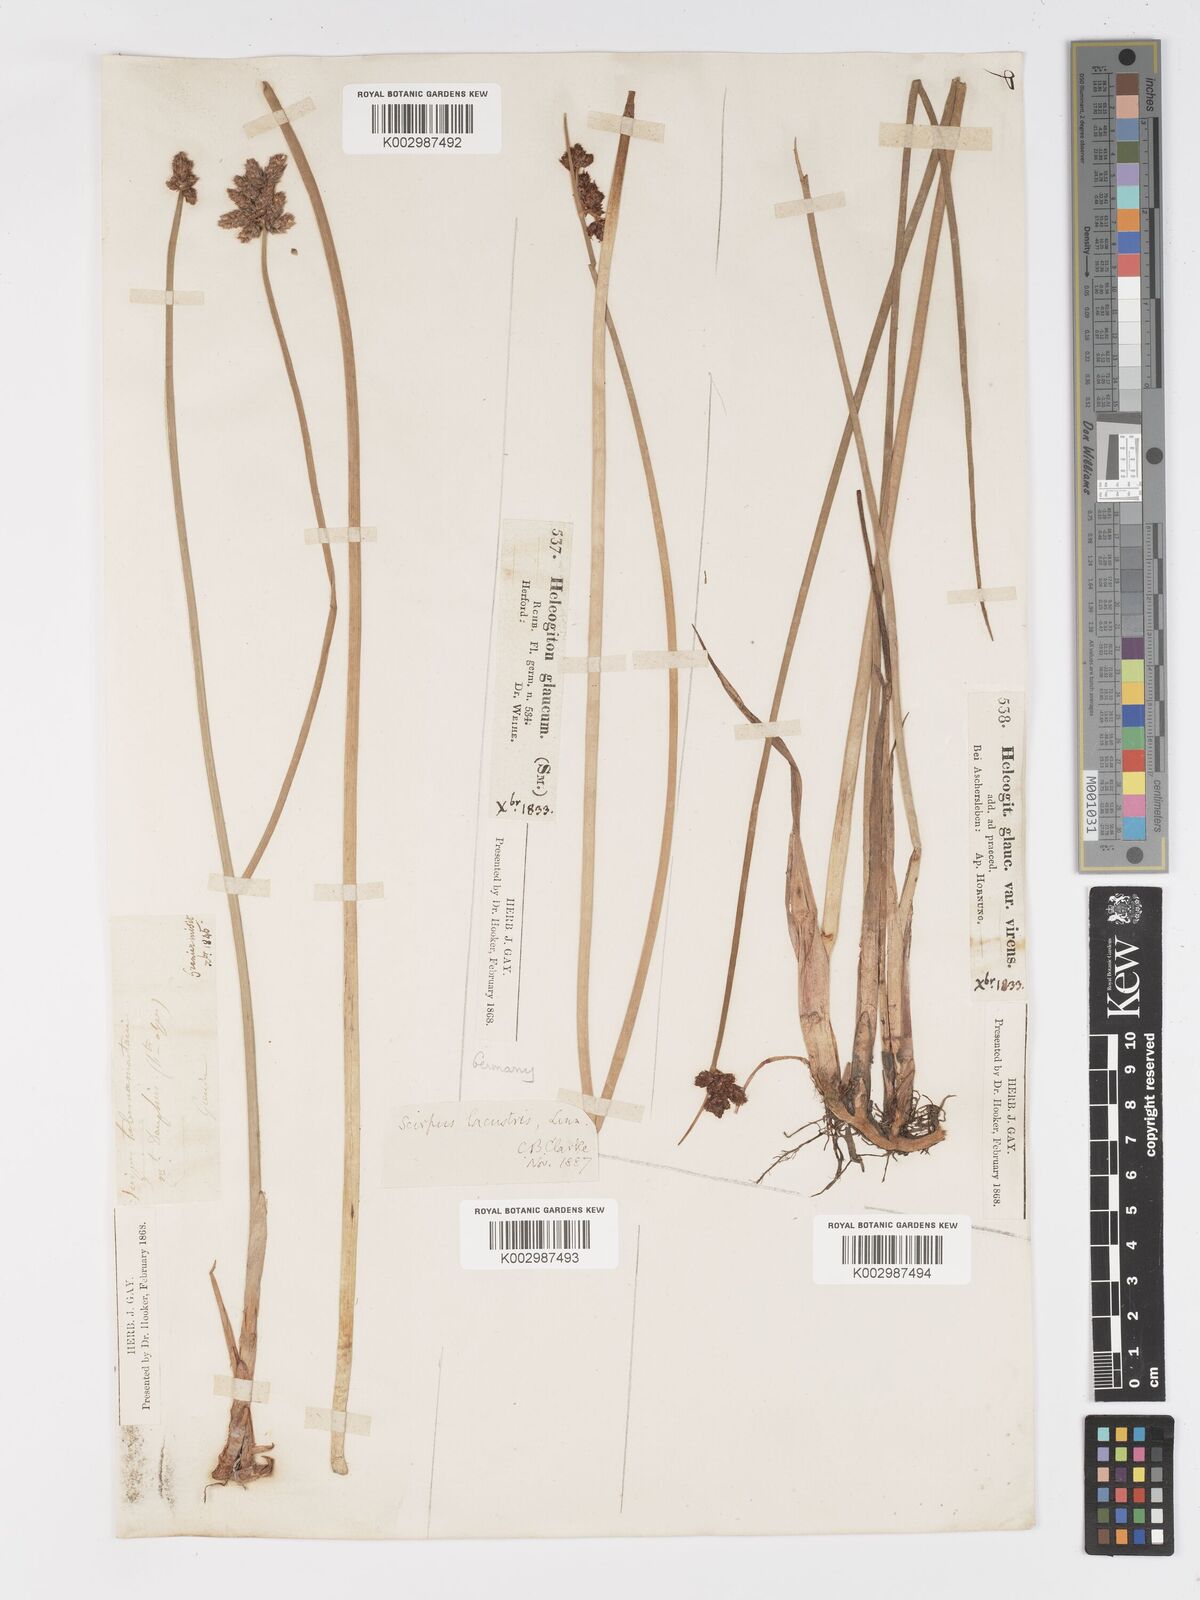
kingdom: Plantae
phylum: Tracheophyta
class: Liliopsida
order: Poales
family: Cyperaceae
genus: Schoenoplectus
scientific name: Schoenoplectus lacustris
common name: Common club-rush
